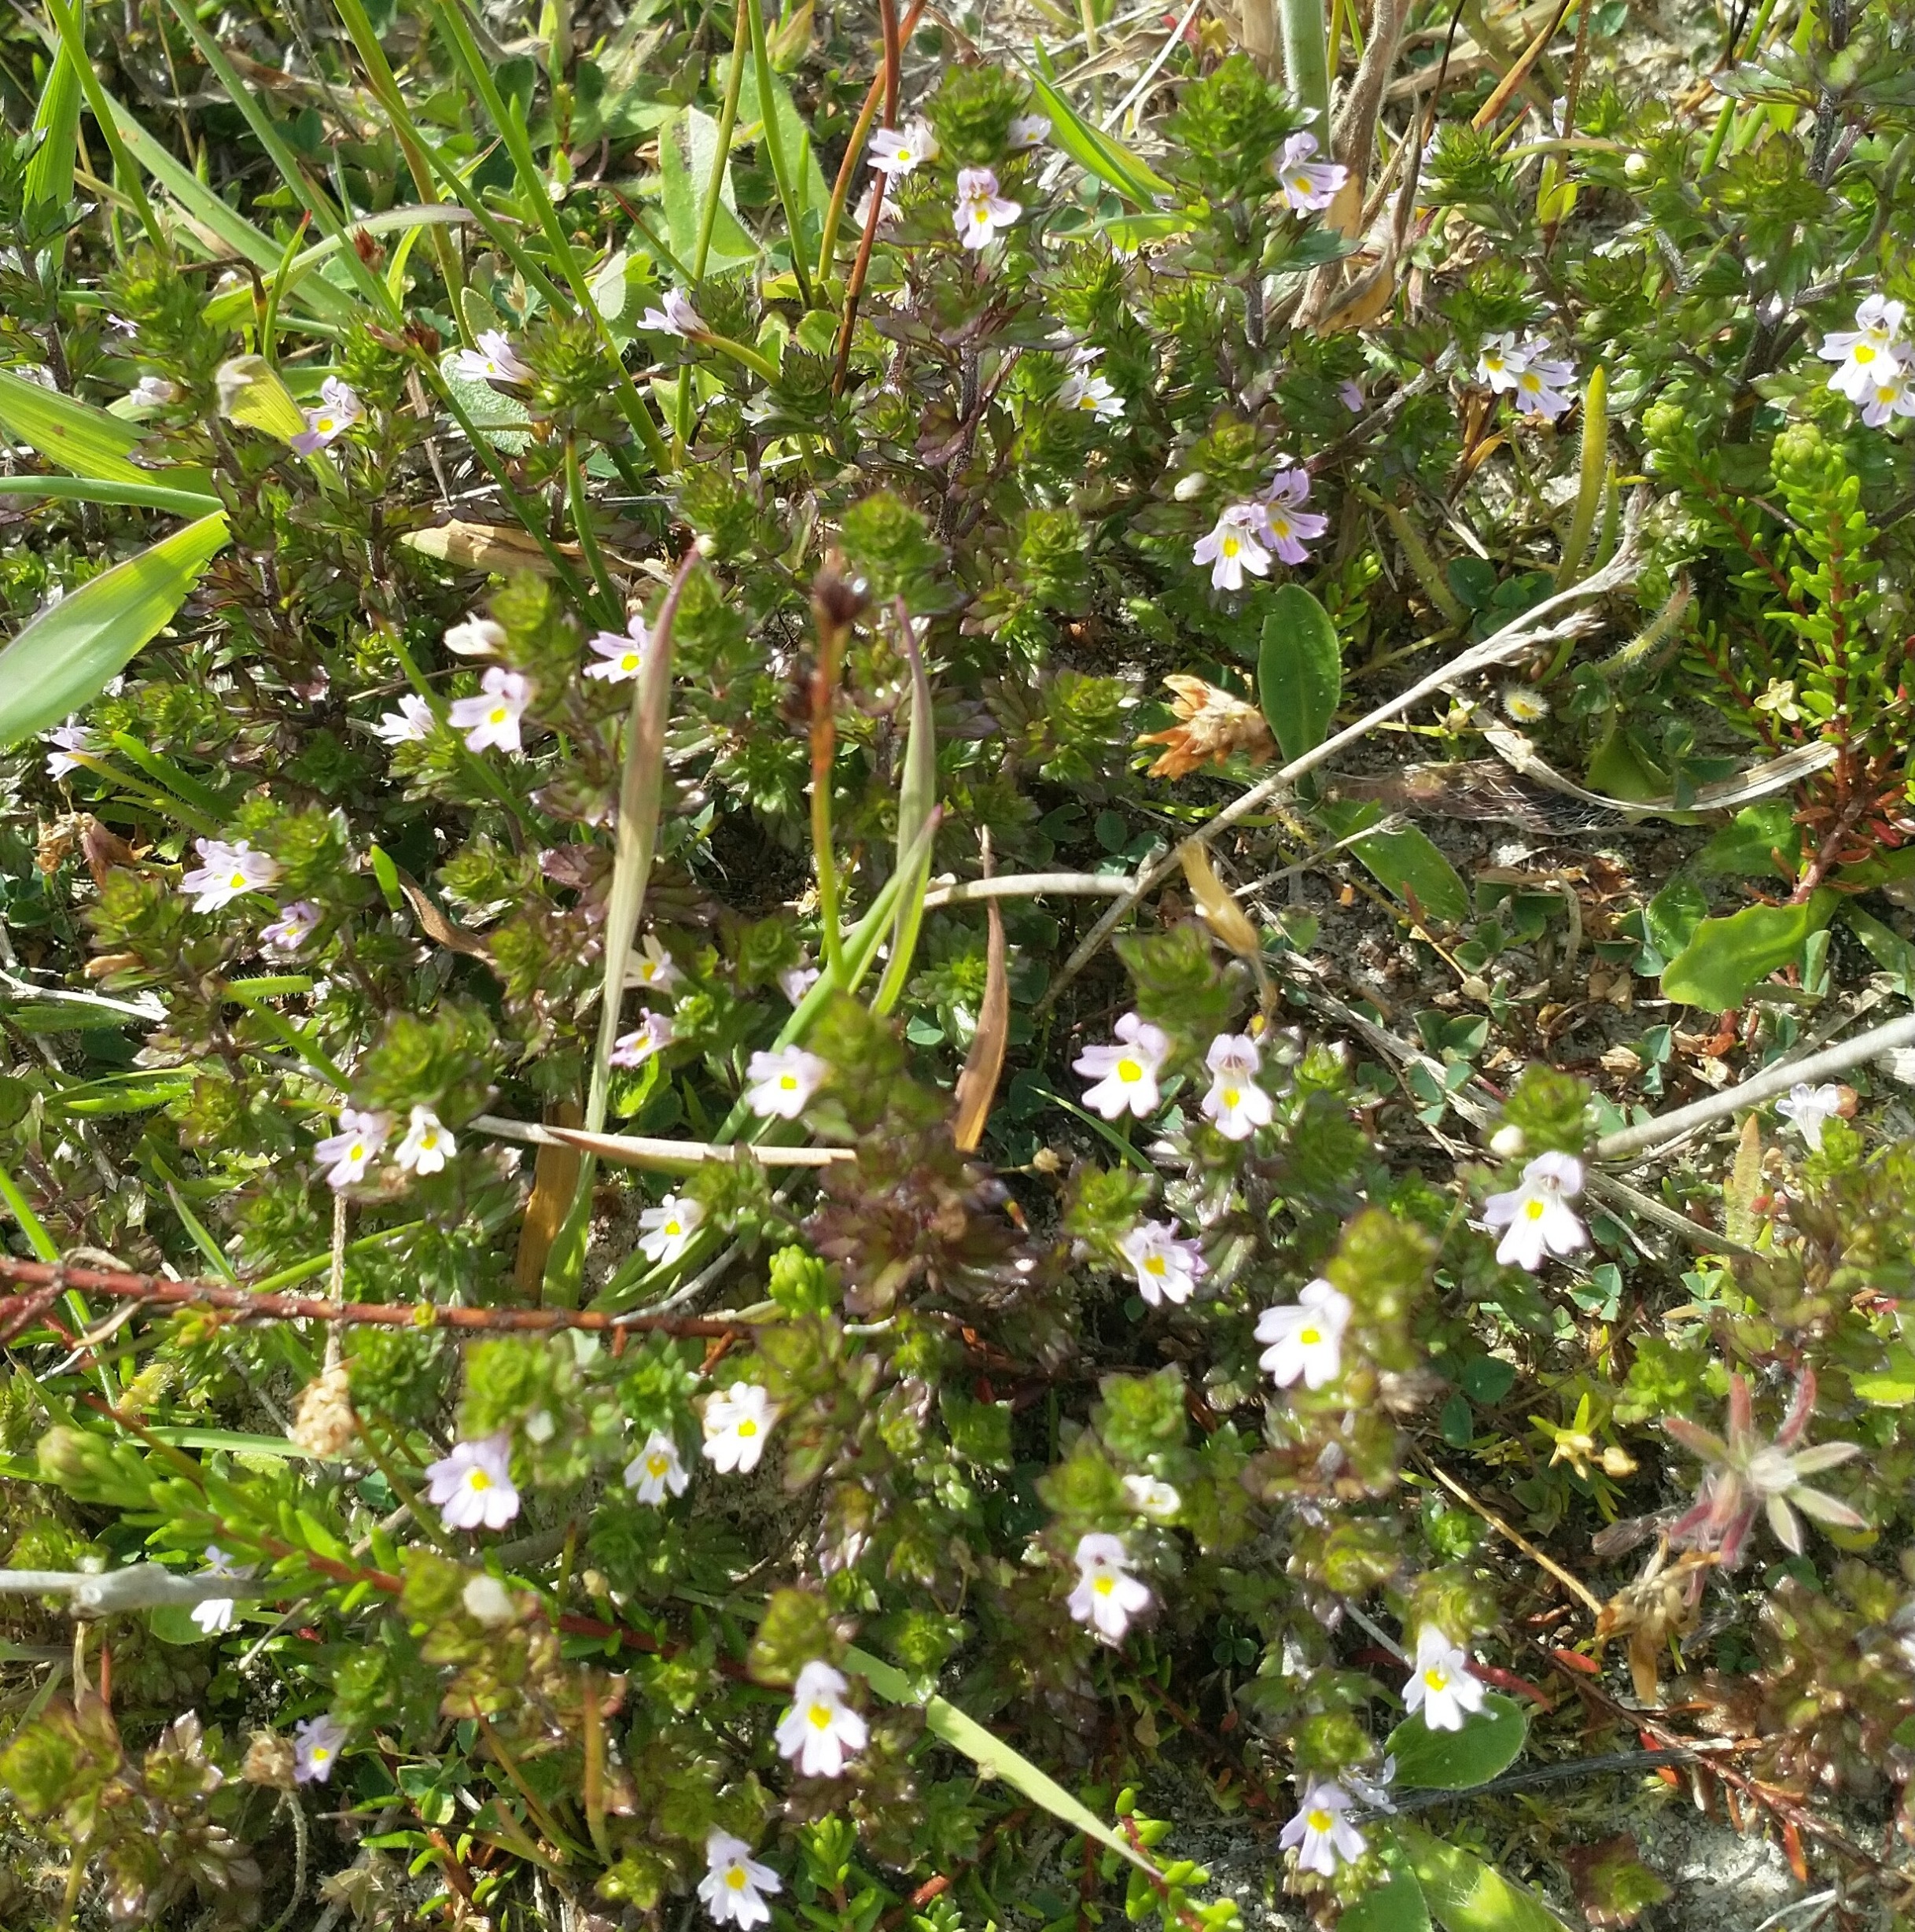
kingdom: Plantae
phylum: Tracheophyta
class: Magnoliopsida
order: Lamiales
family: Orobanchaceae
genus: Euphrasia
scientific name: Euphrasia stricta
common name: Spids øjentrøst
